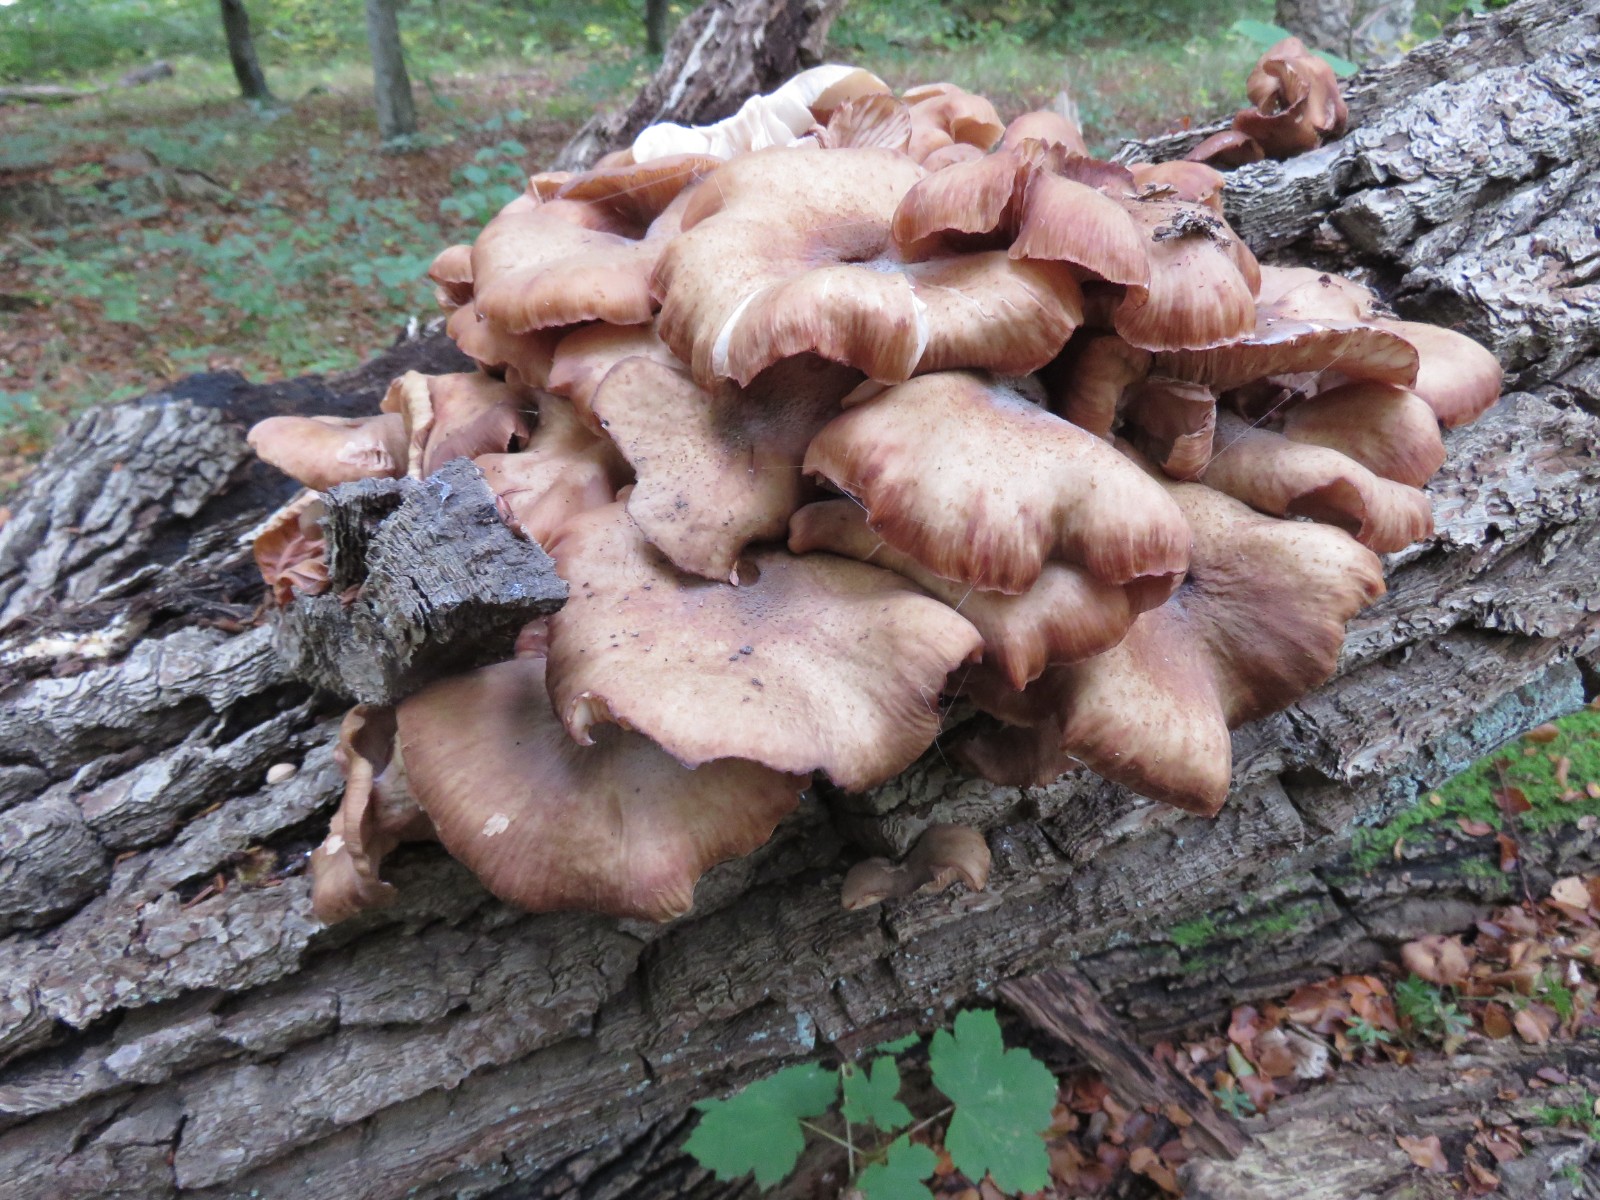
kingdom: Fungi
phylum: Basidiomycota
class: Agaricomycetes
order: Agaricales
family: Physalacriaceae
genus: Armillaria
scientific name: Armillaria lutea
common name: køllestokket honningsvamp
